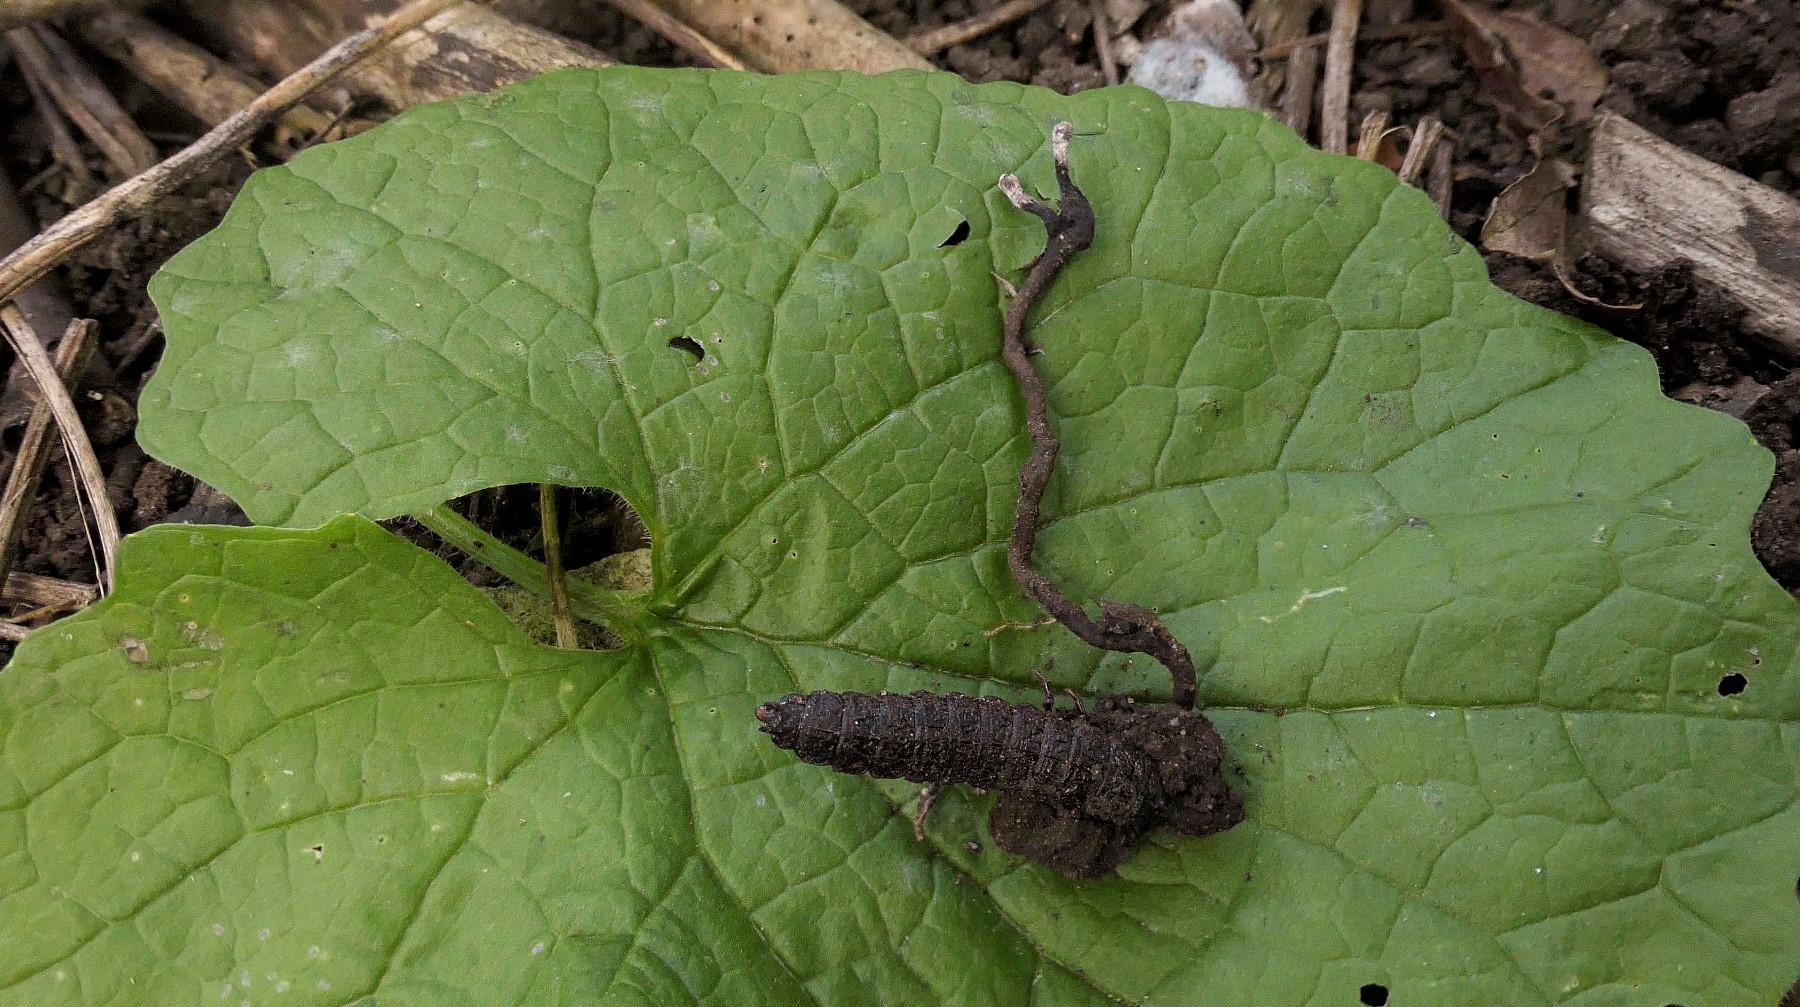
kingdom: Fungi
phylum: Ascomycota
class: Sordariomycetes
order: Hypocreales
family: Ophiocordycipitaceae
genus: Ophiocordyceps
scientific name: Ophiocordyceps entomorrhiza
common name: grå snyltekølle
